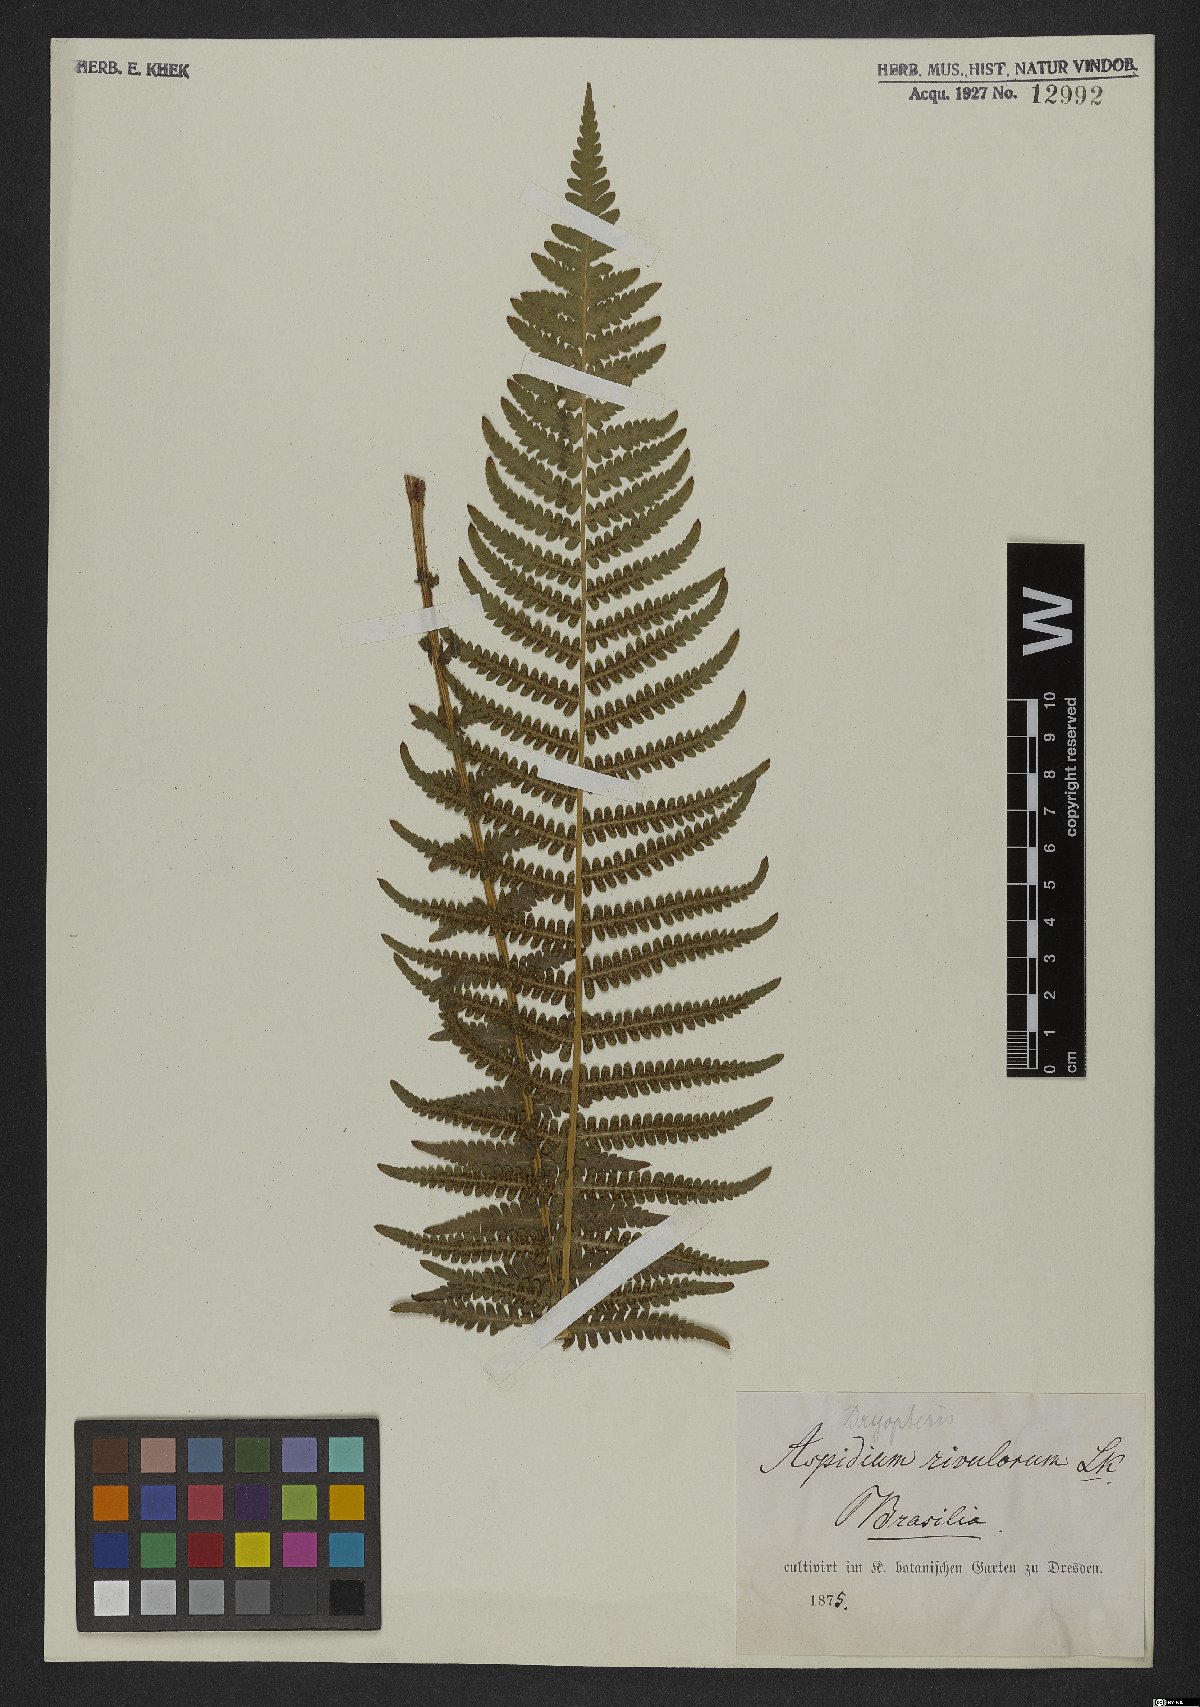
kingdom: Plantae
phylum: Tracheophyta
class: Polypodiopsida
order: Polypodiales
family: Thelypteridaceae
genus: Amauropelta
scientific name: Amauropelta opposita
